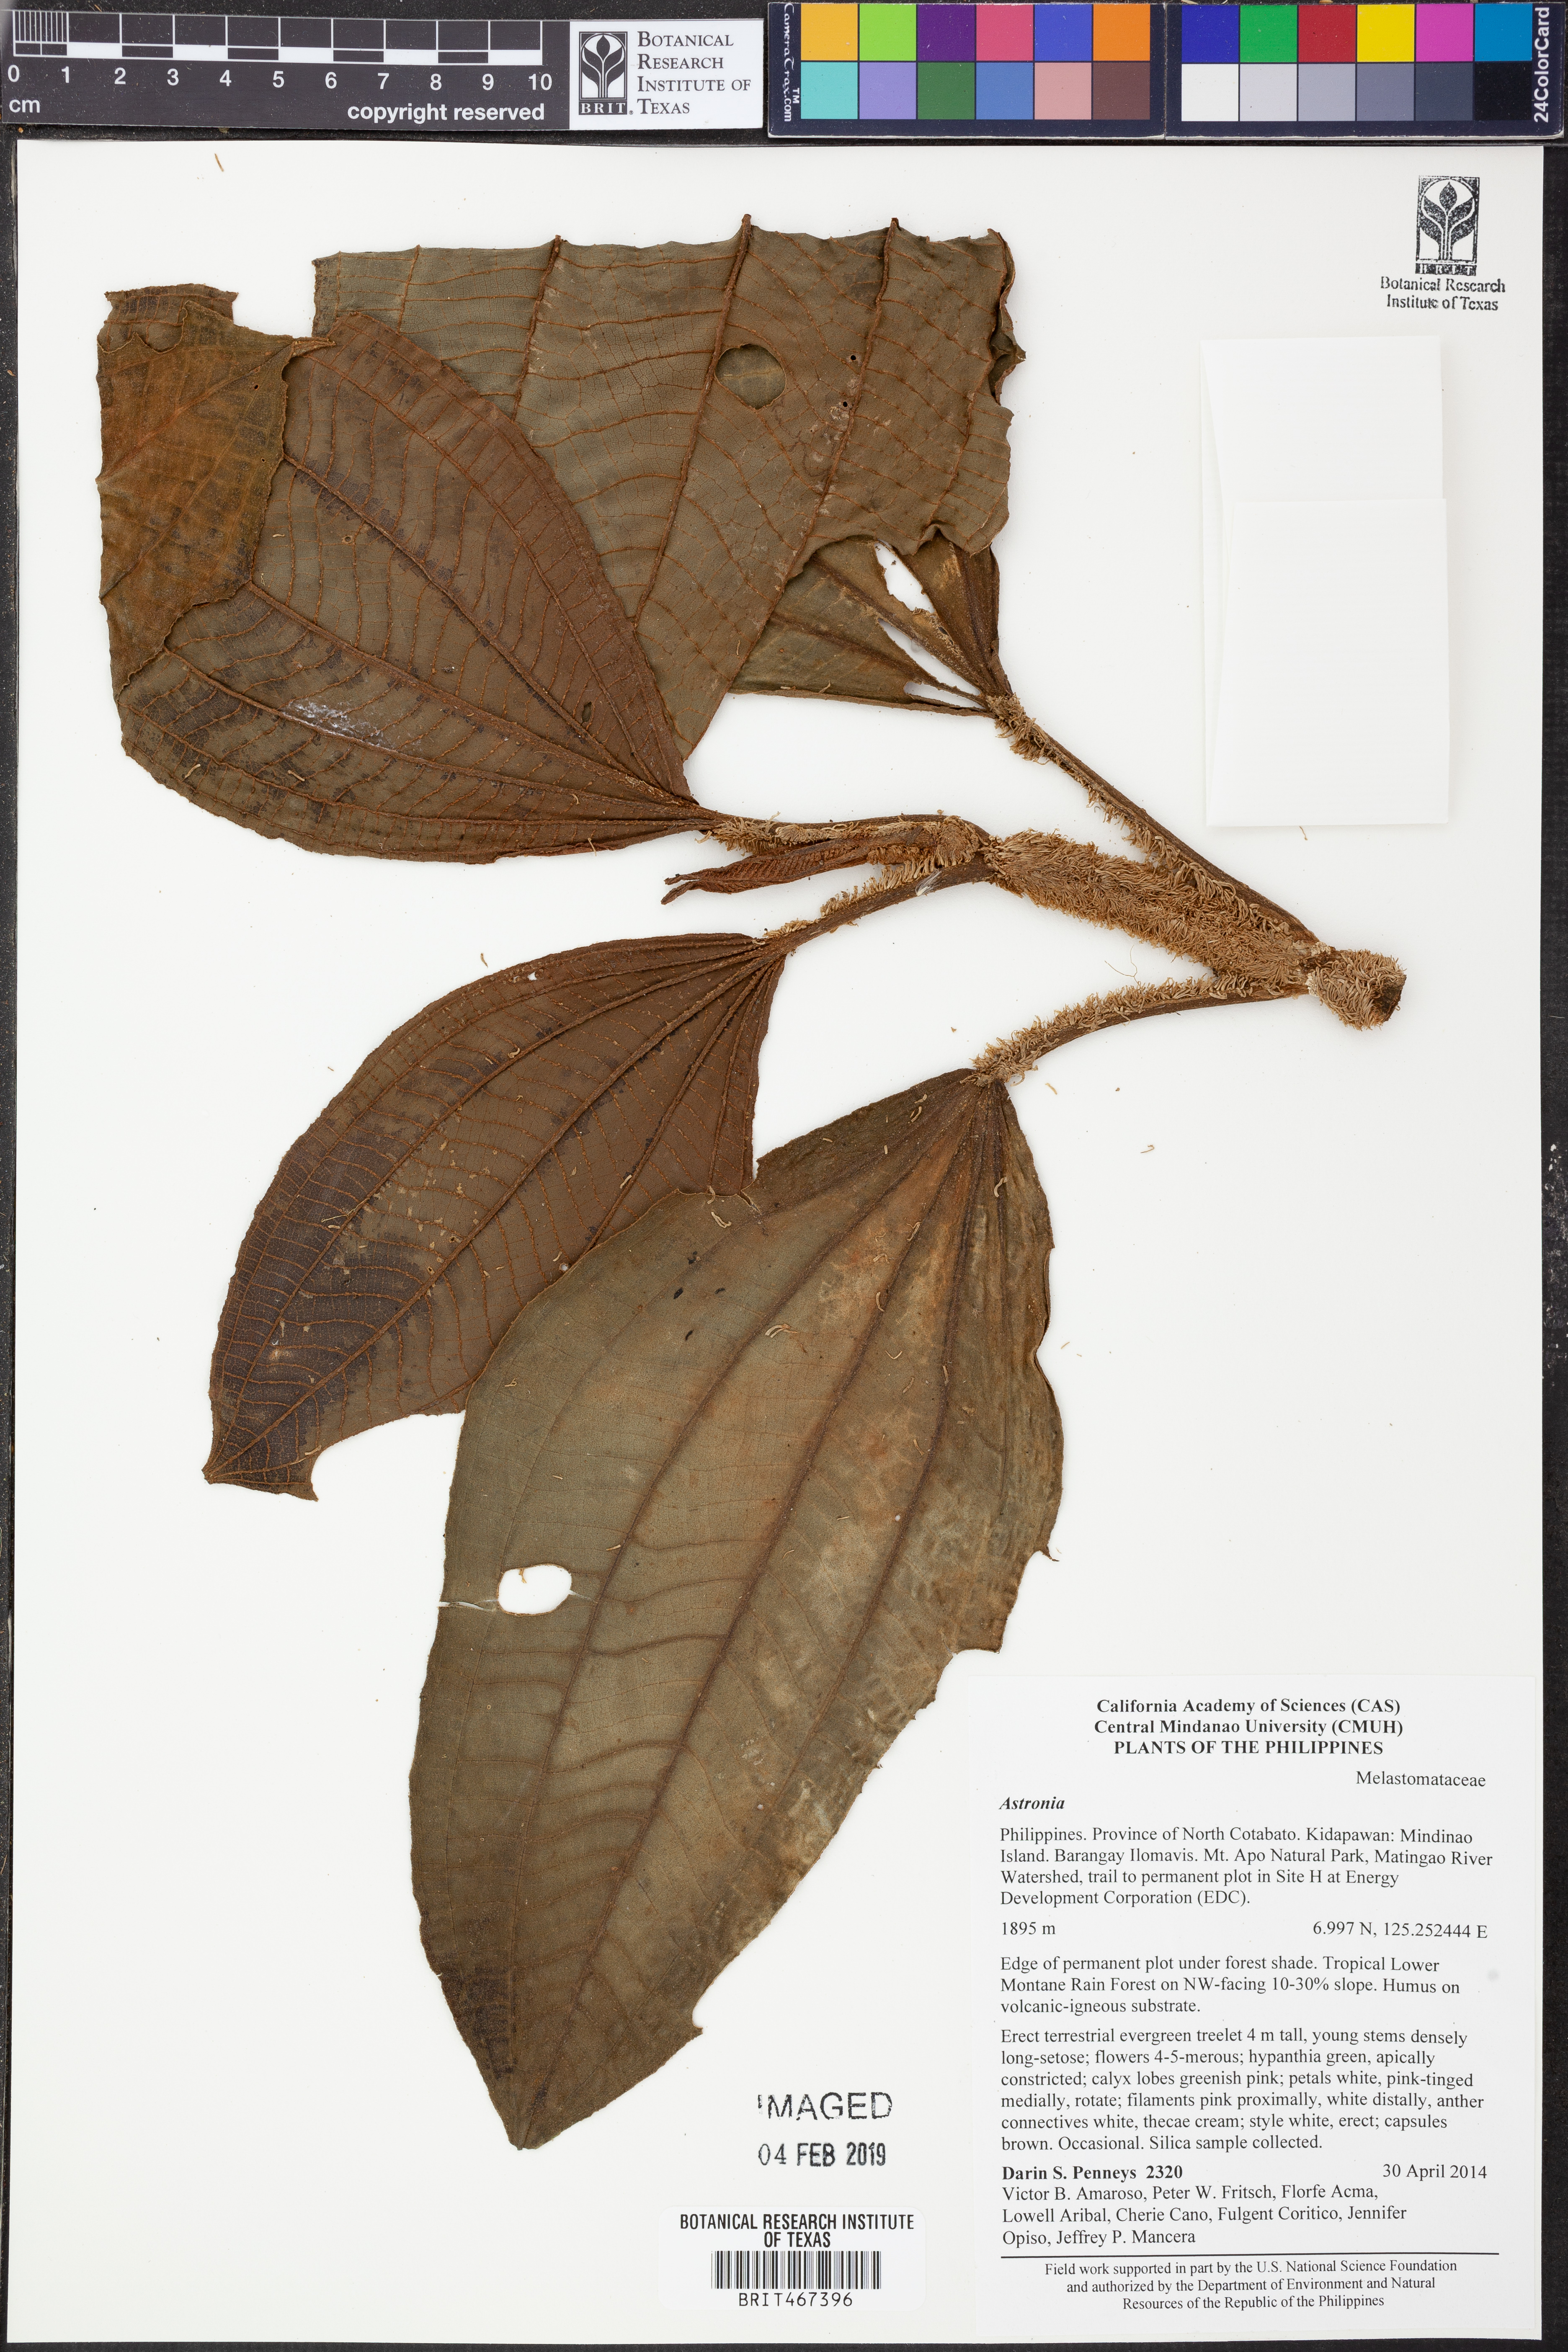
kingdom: Plantae
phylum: Tracheophyta
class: Magnoliopsida
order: Myrtales
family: Melastomataceae
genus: Astronia
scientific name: Astronia
